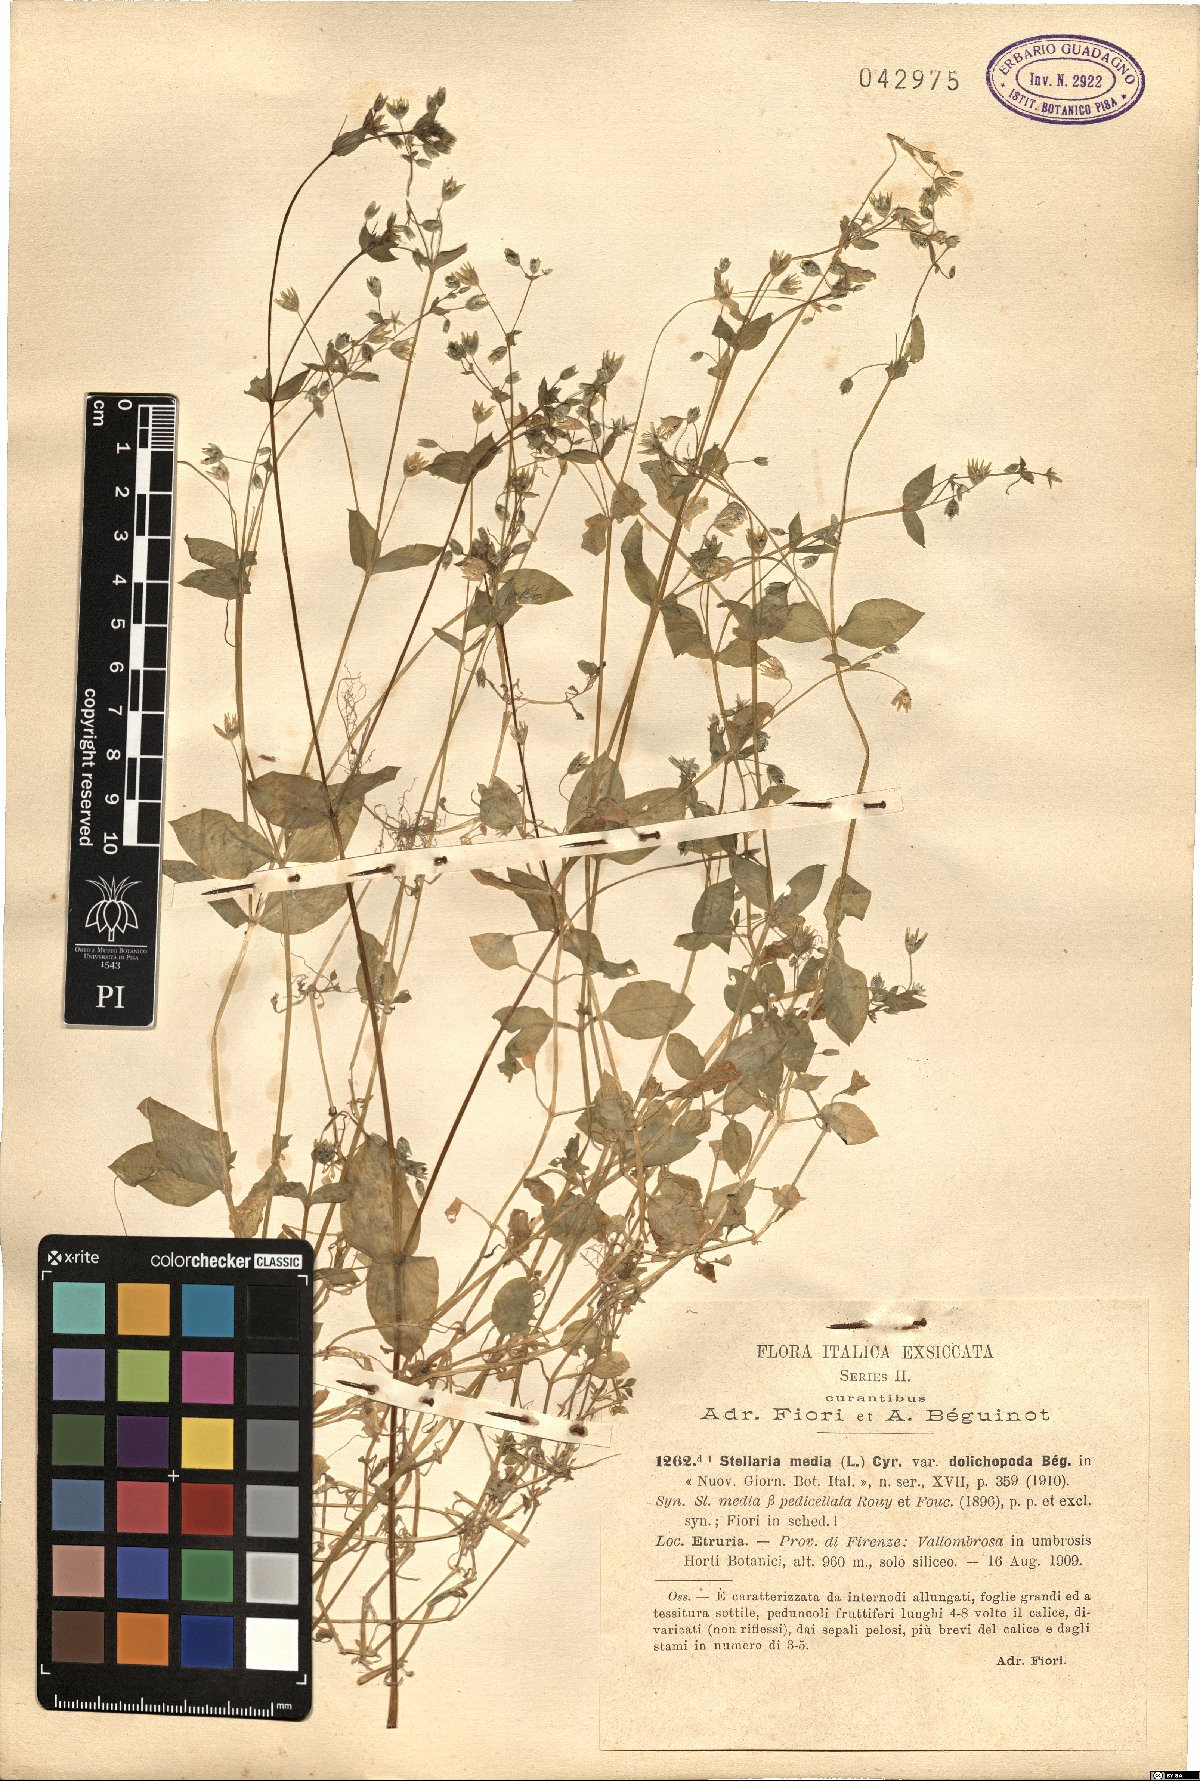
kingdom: Plantae
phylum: Tracheophyta
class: Magnoliopsida
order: Caryophyllales
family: Caryophyllaceae
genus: Stellaria
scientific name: Stellaria media
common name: Common chickweed
